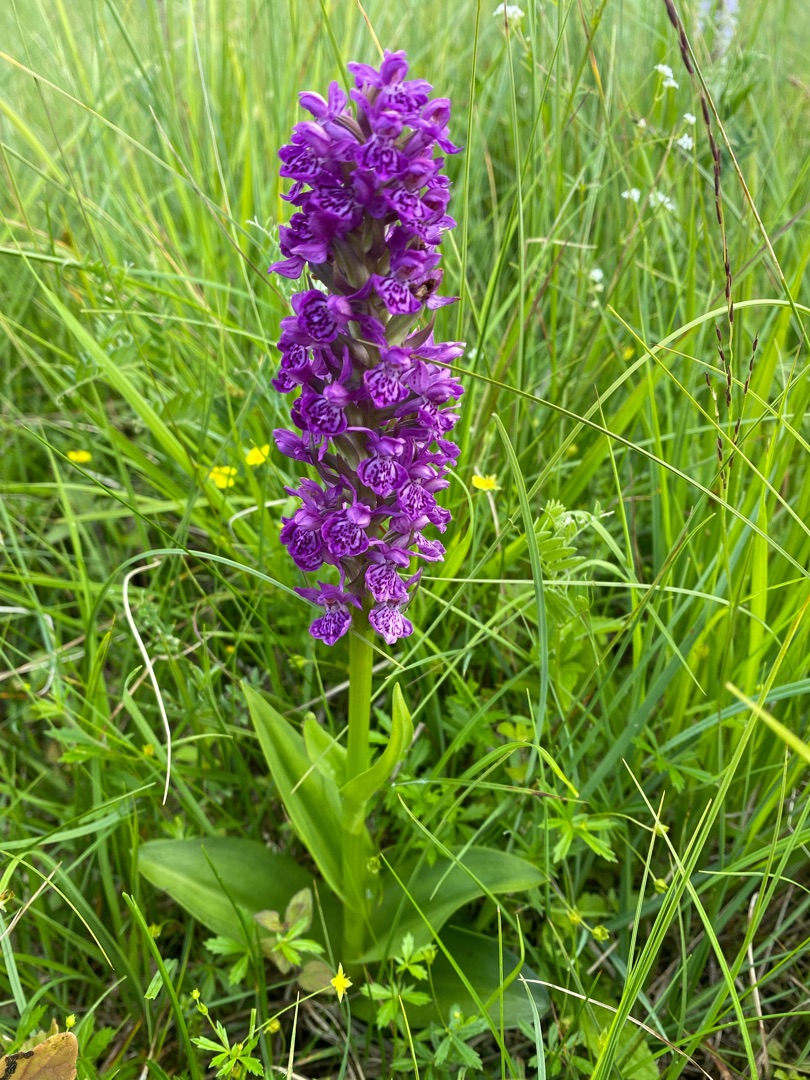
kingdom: Plantae
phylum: Tracheophyta
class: Liliopsida
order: Asparagales
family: Orchidaceae
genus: Dactylorhiza
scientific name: Dactylorhiza majalis
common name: Purpur-gøgeurt
